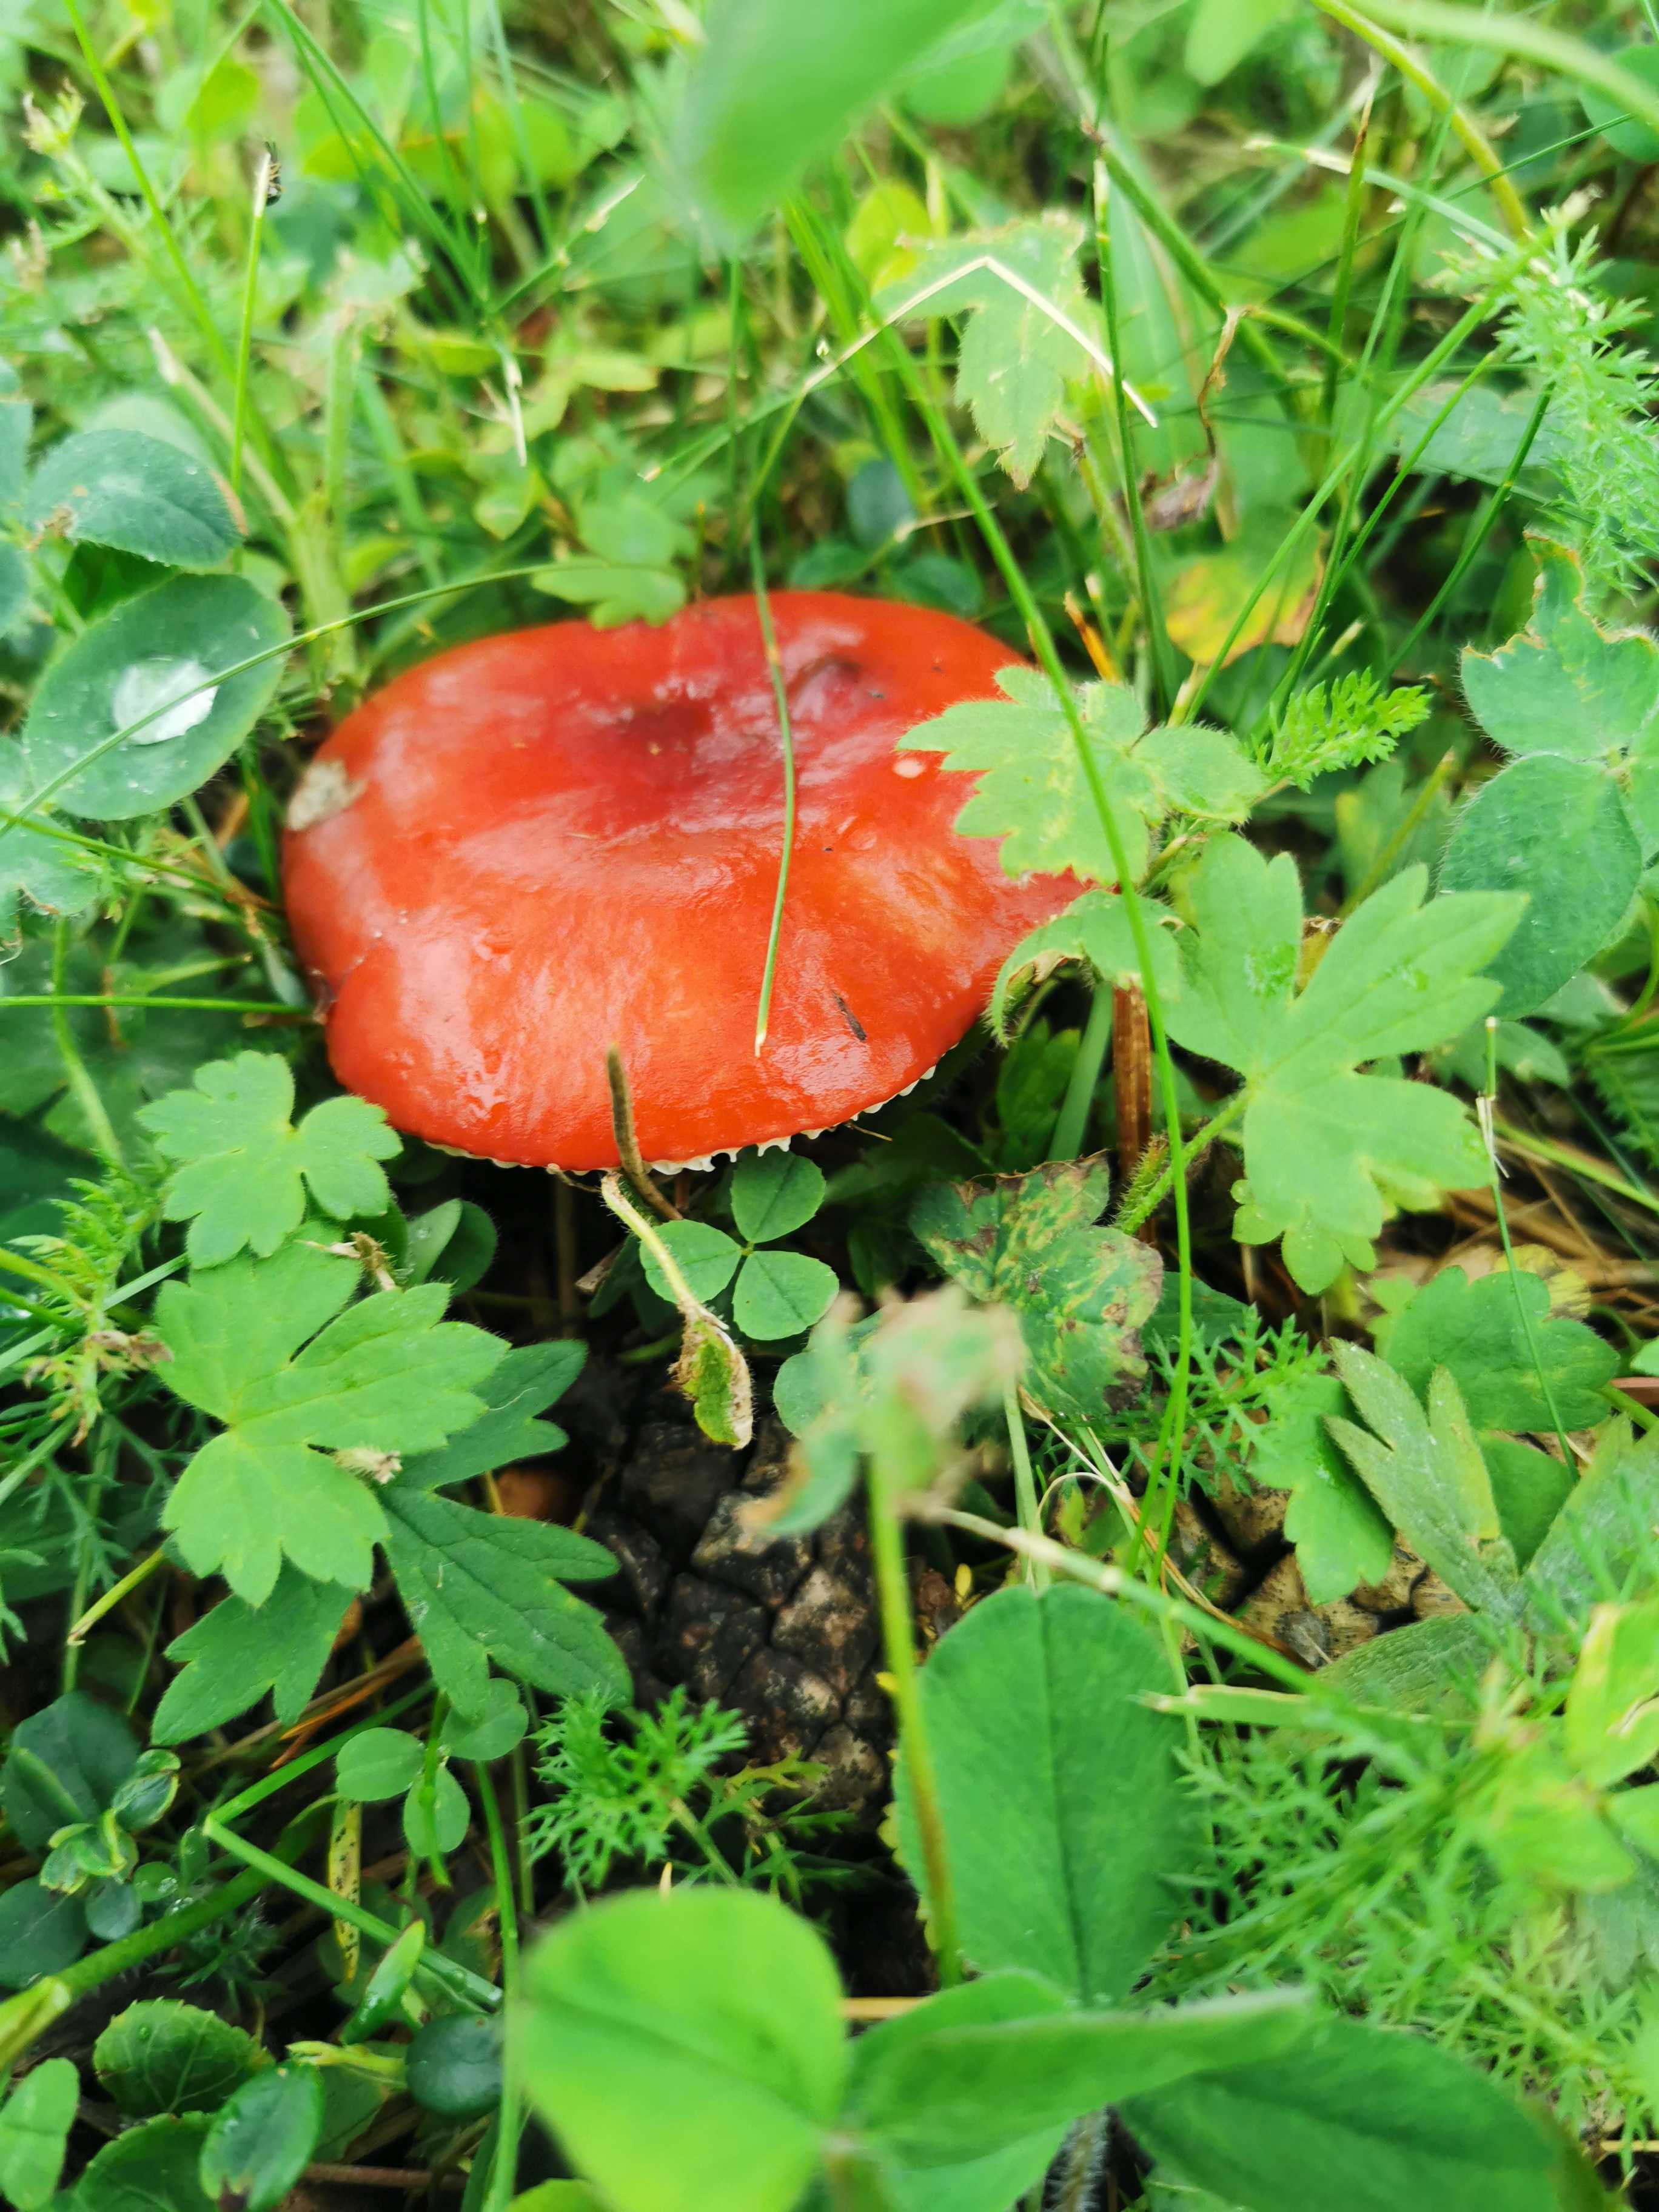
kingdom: Fungi
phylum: Basidiomycota
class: Agaricomycetes
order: Russulales
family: Russulaceae
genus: Russula
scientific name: Russula
